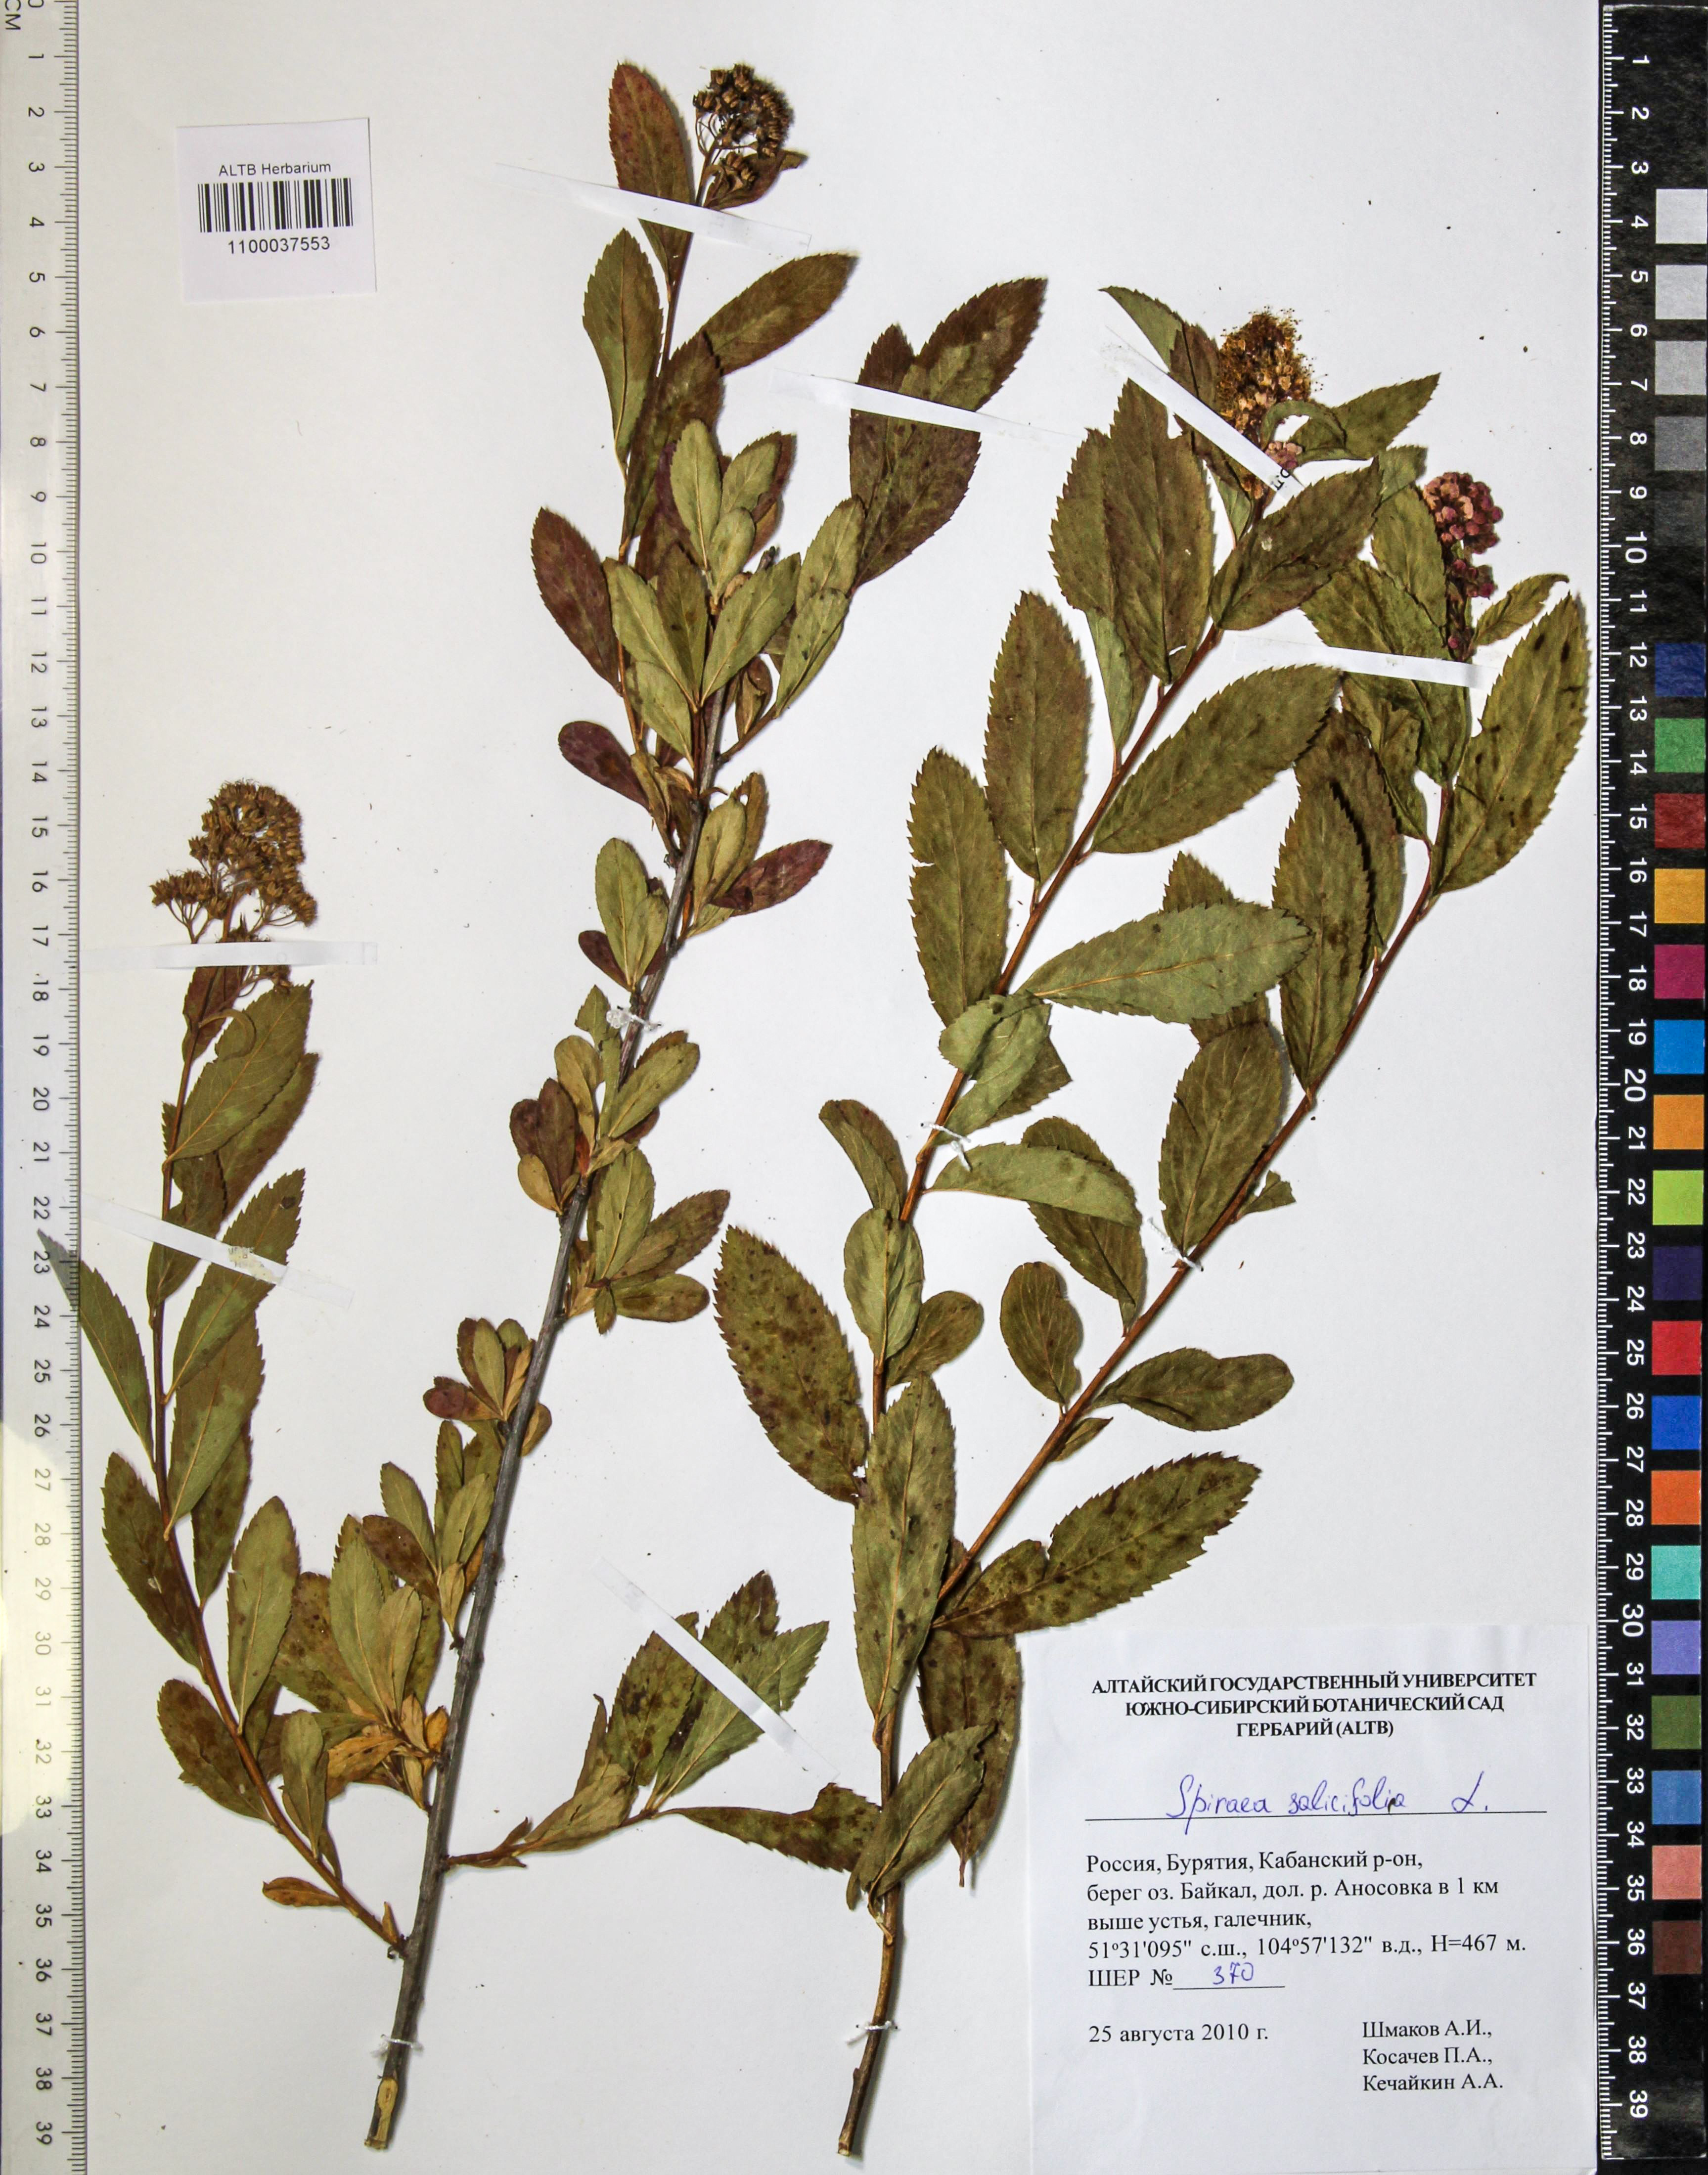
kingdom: Plantae
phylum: Tracheophyta
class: Magnoliopsida
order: Rosales
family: Rosaceae
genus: Spiraea
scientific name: Spiraea salicifolia
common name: Bridewort
